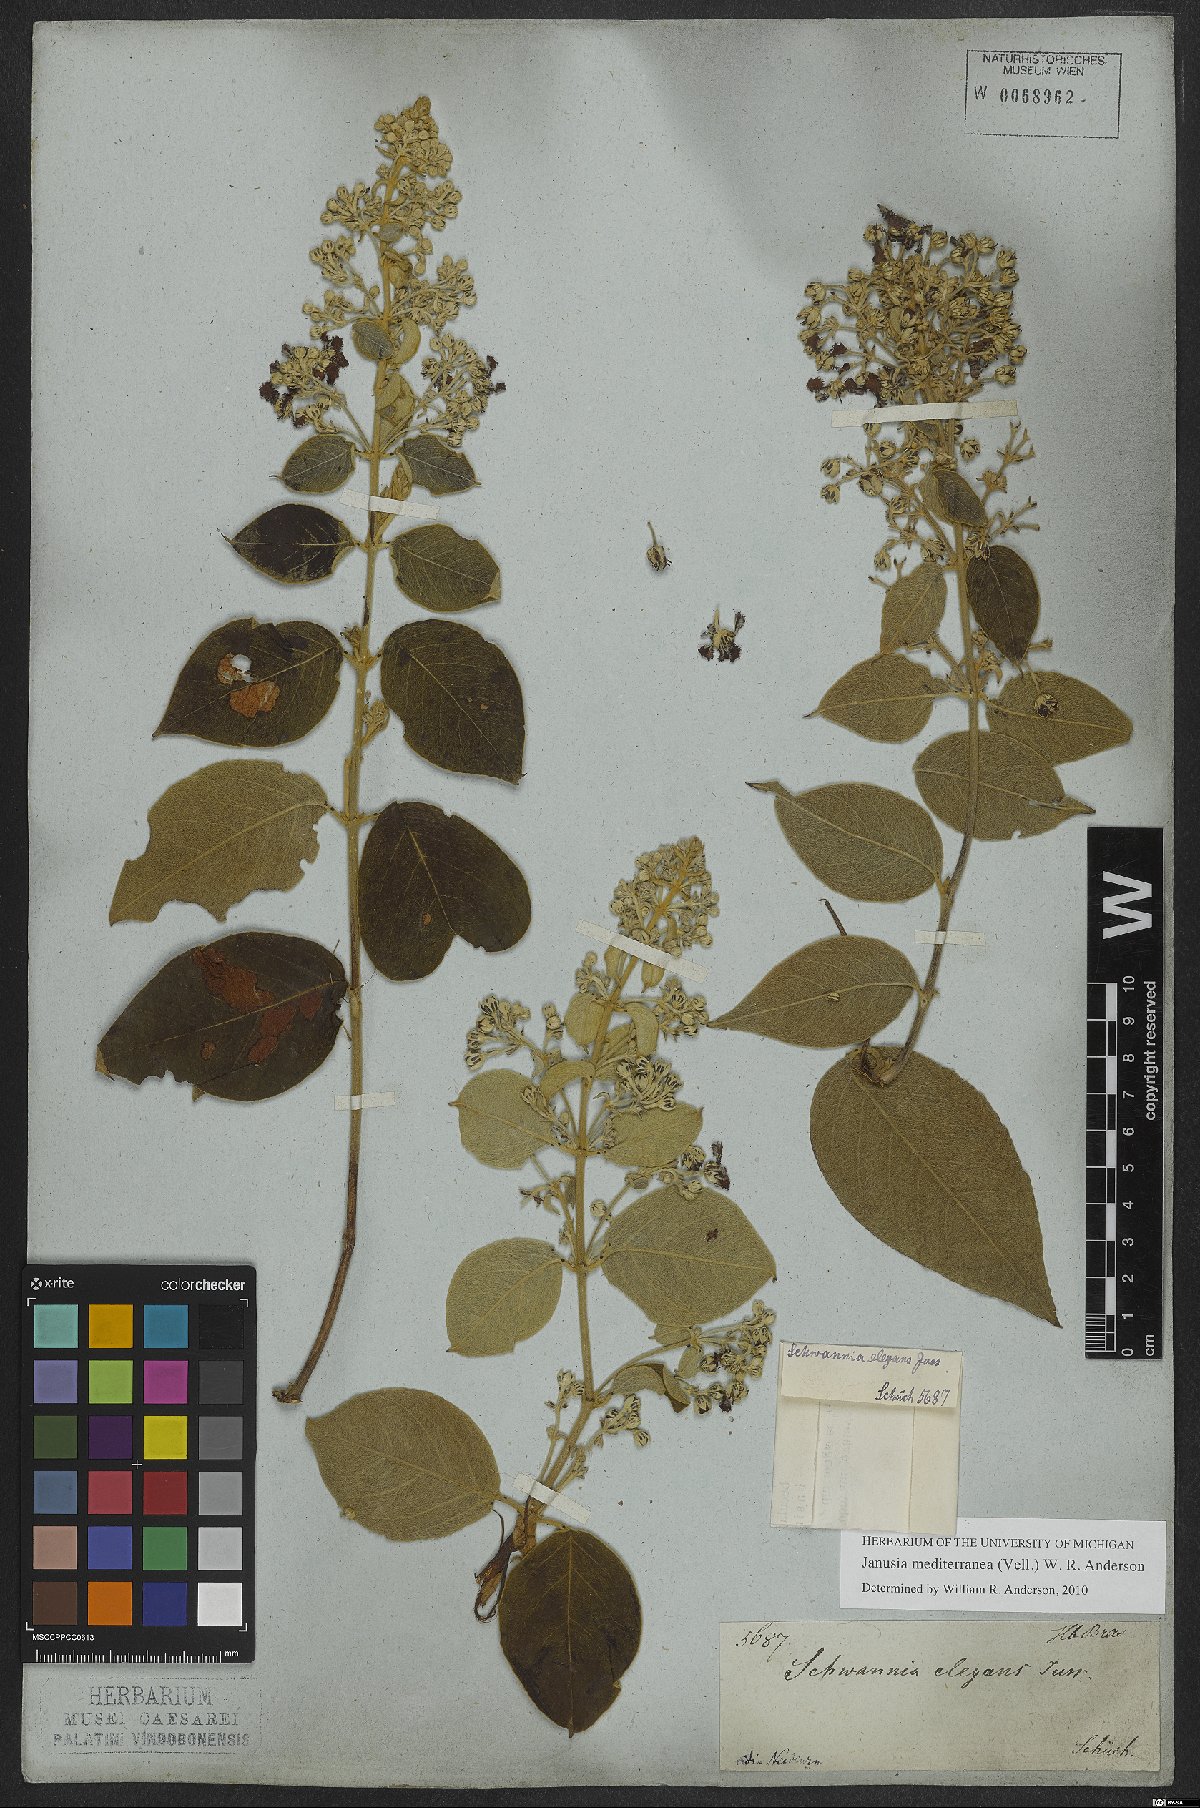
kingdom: Plantae
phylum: Tracheophyta
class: Magnoliopsida
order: Malpighiales
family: Malpighiaceae
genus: Janusia
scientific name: Janusia mediterranea
